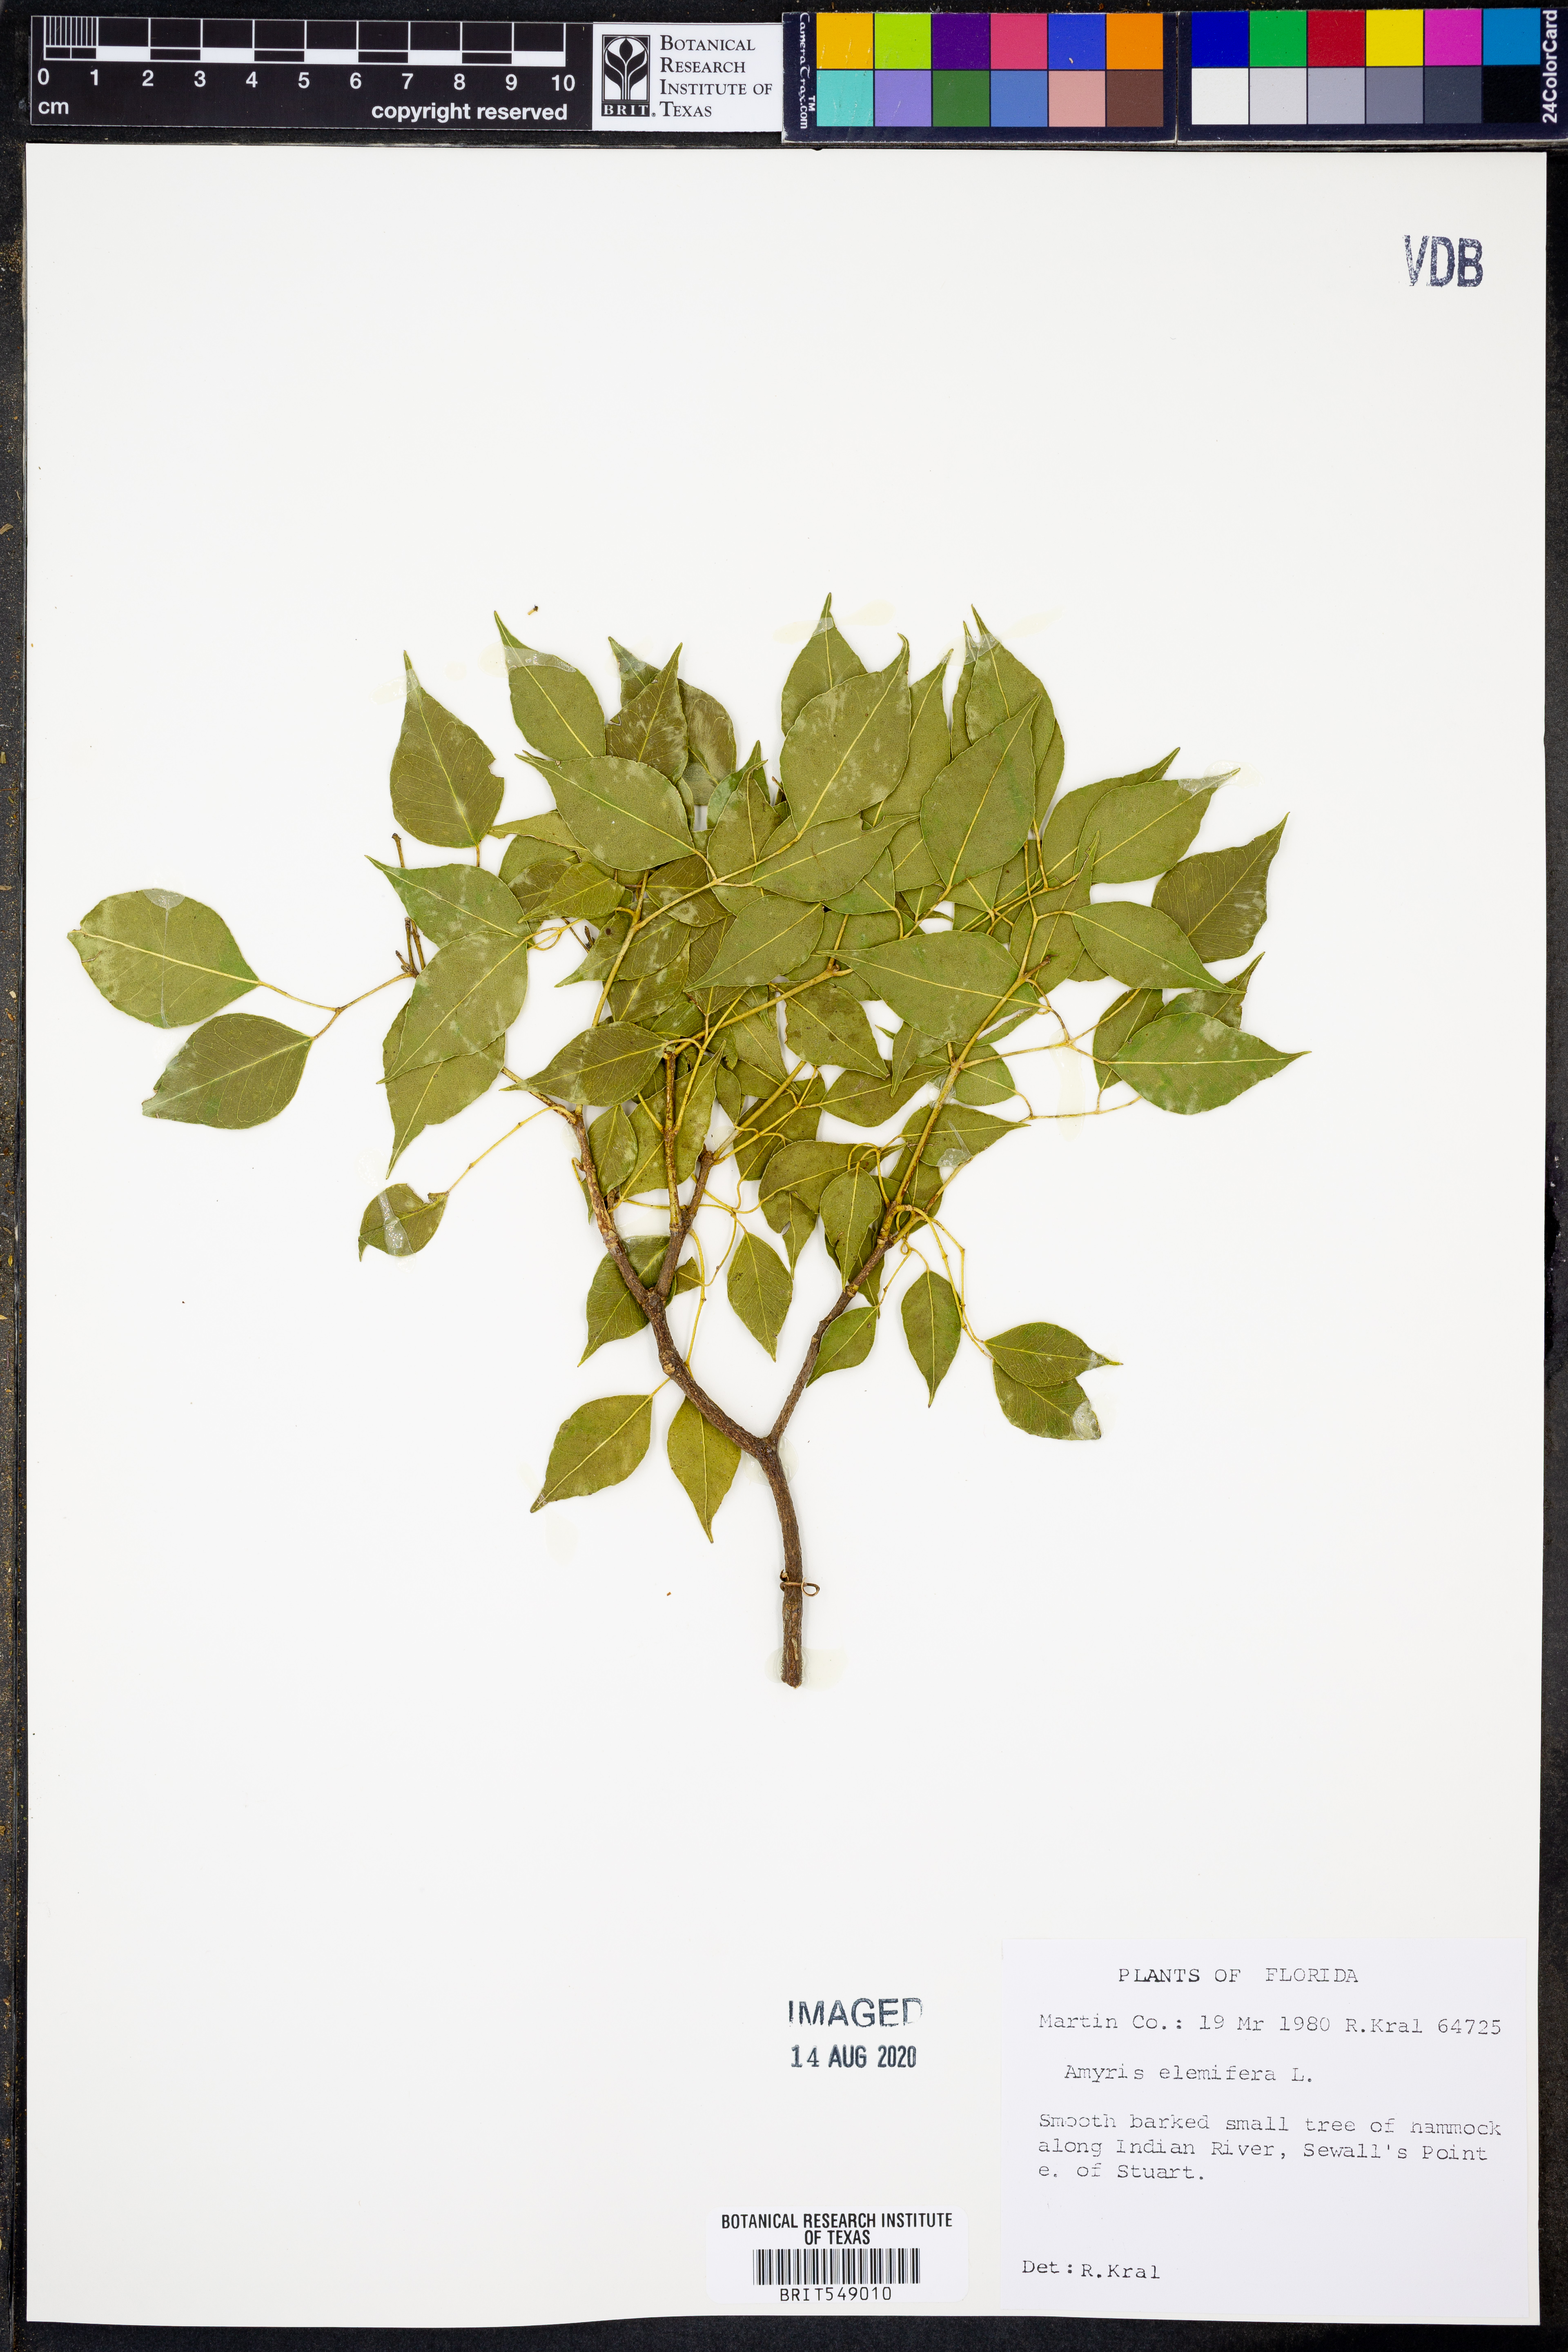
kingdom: Plantae
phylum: Tracheophyta
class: Magnoliopsida
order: Sapindales
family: Rutaceae
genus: Amyris
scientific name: Amyris elemifera
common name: Sea amyris
